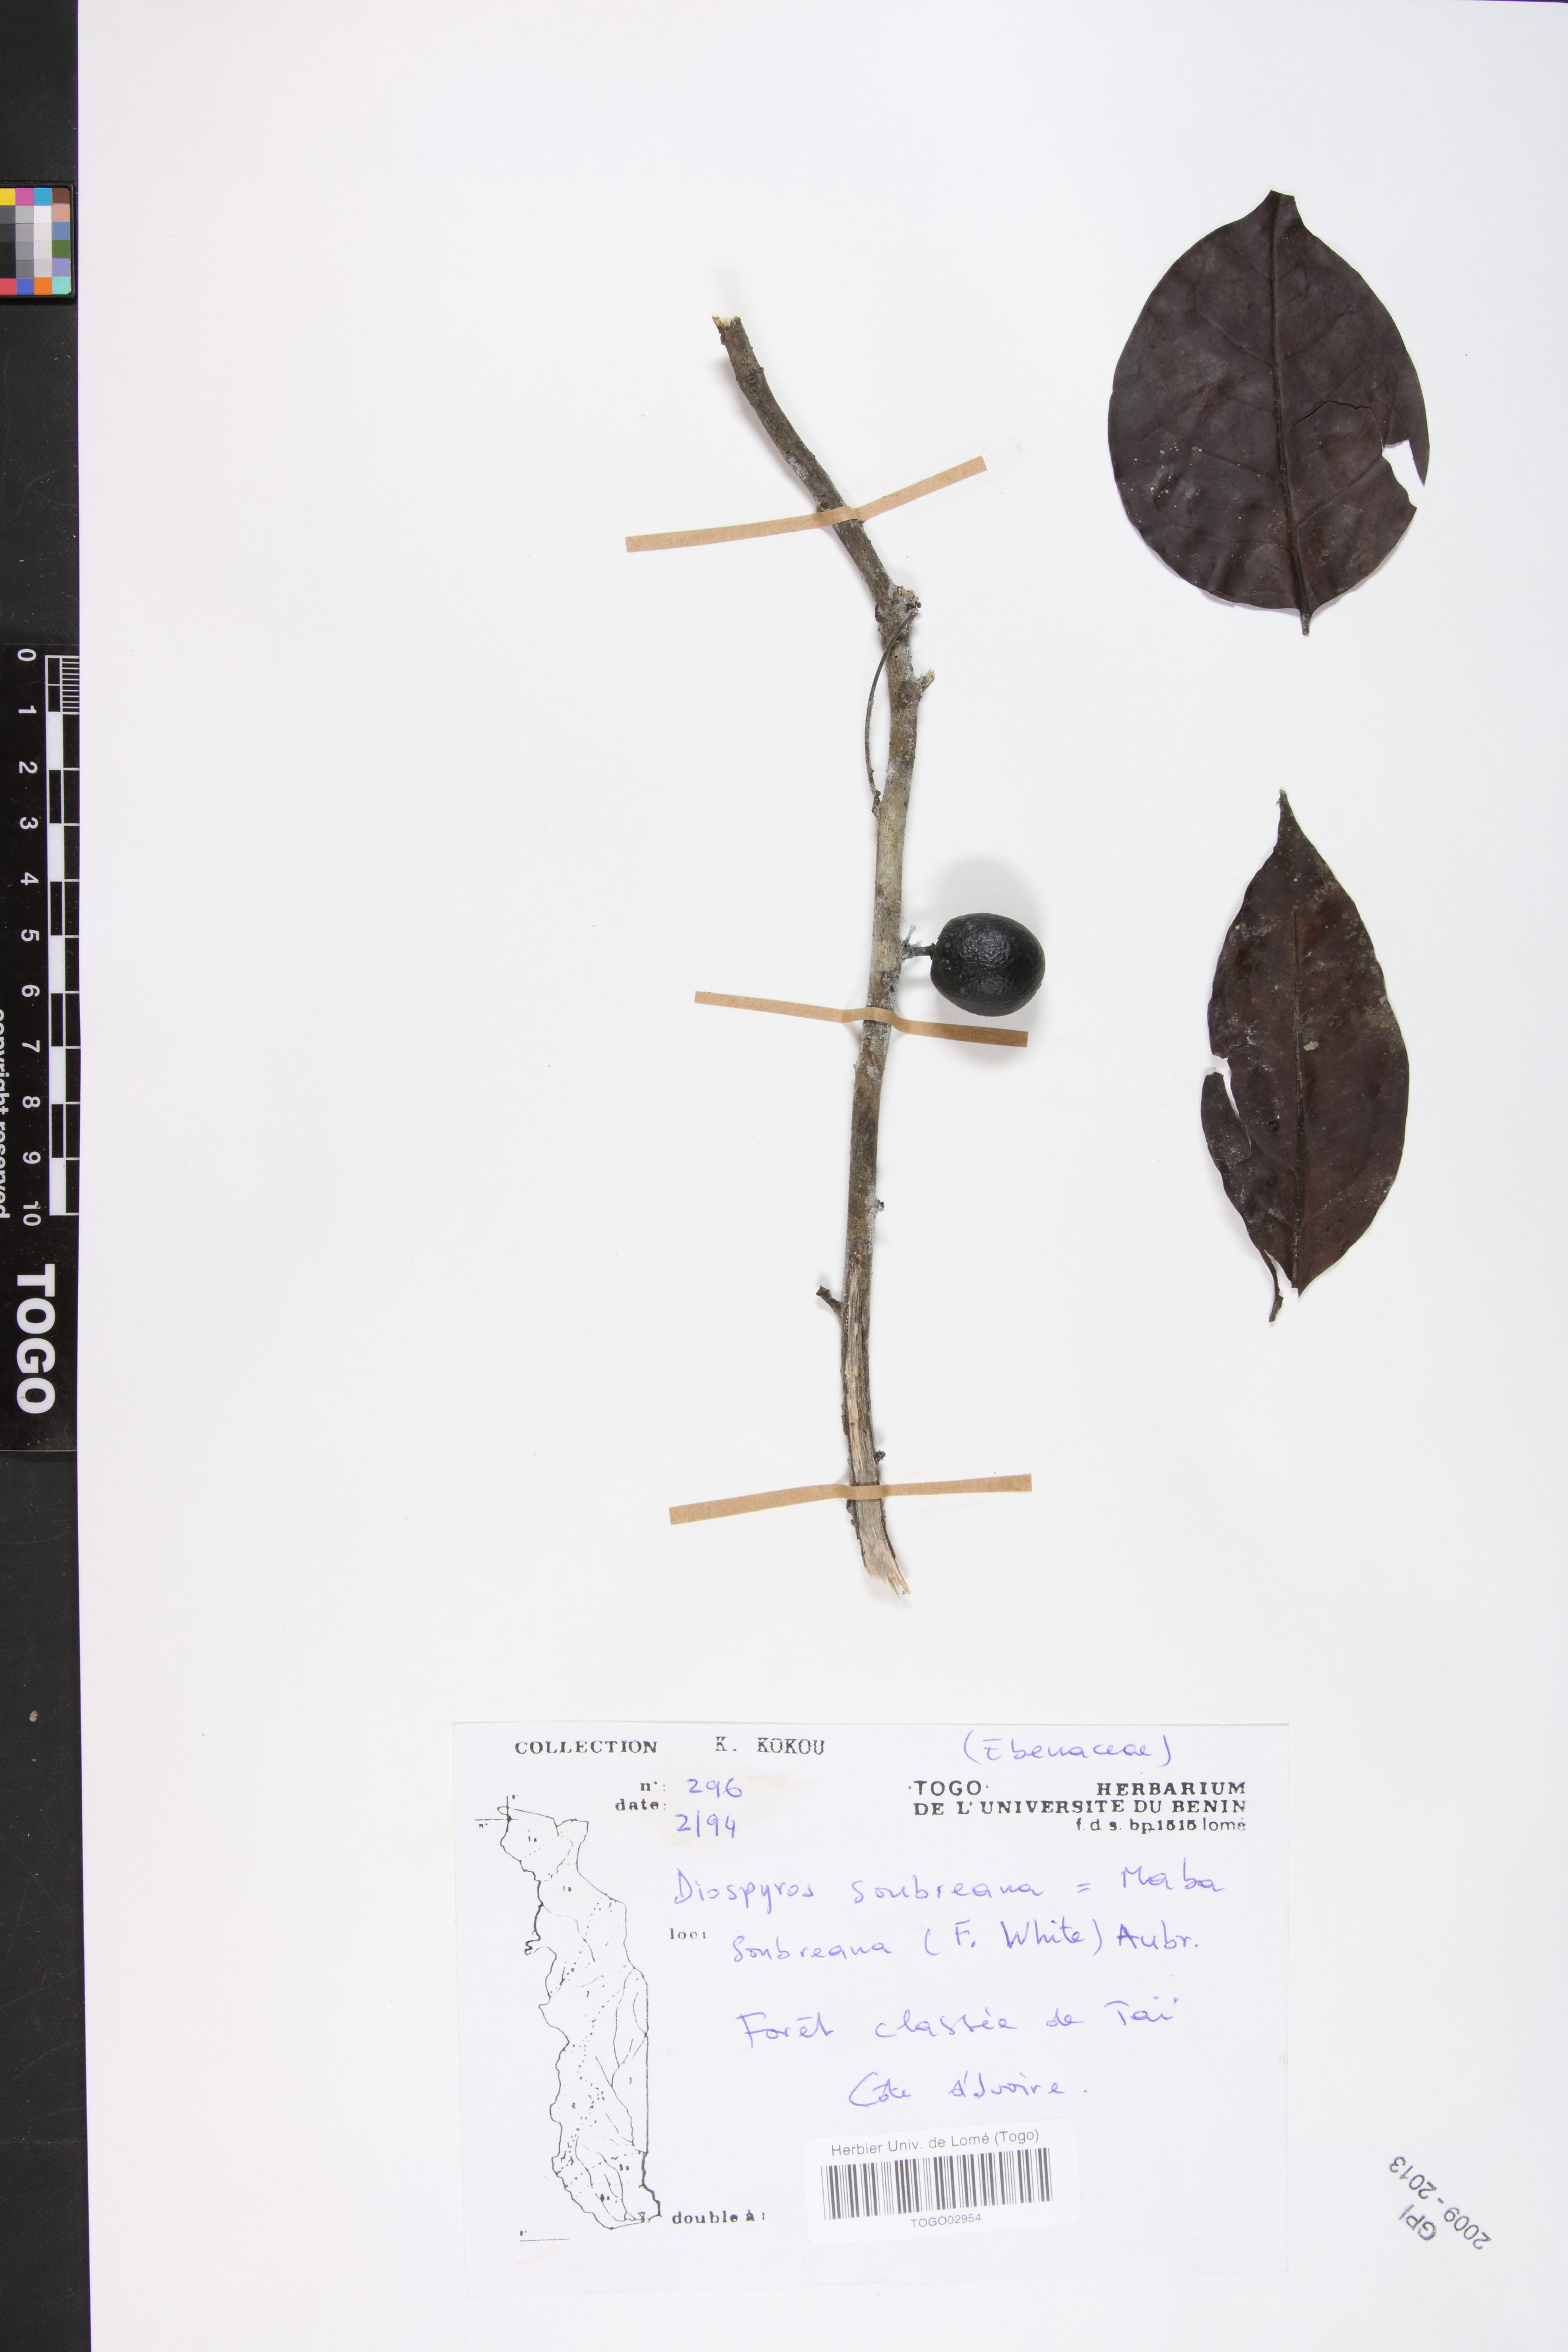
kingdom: Plantae
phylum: Tracheophyta
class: Magnoliopsida
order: Ericales
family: Ebenaceae
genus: Diospyros
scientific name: Diospyros soubreana
